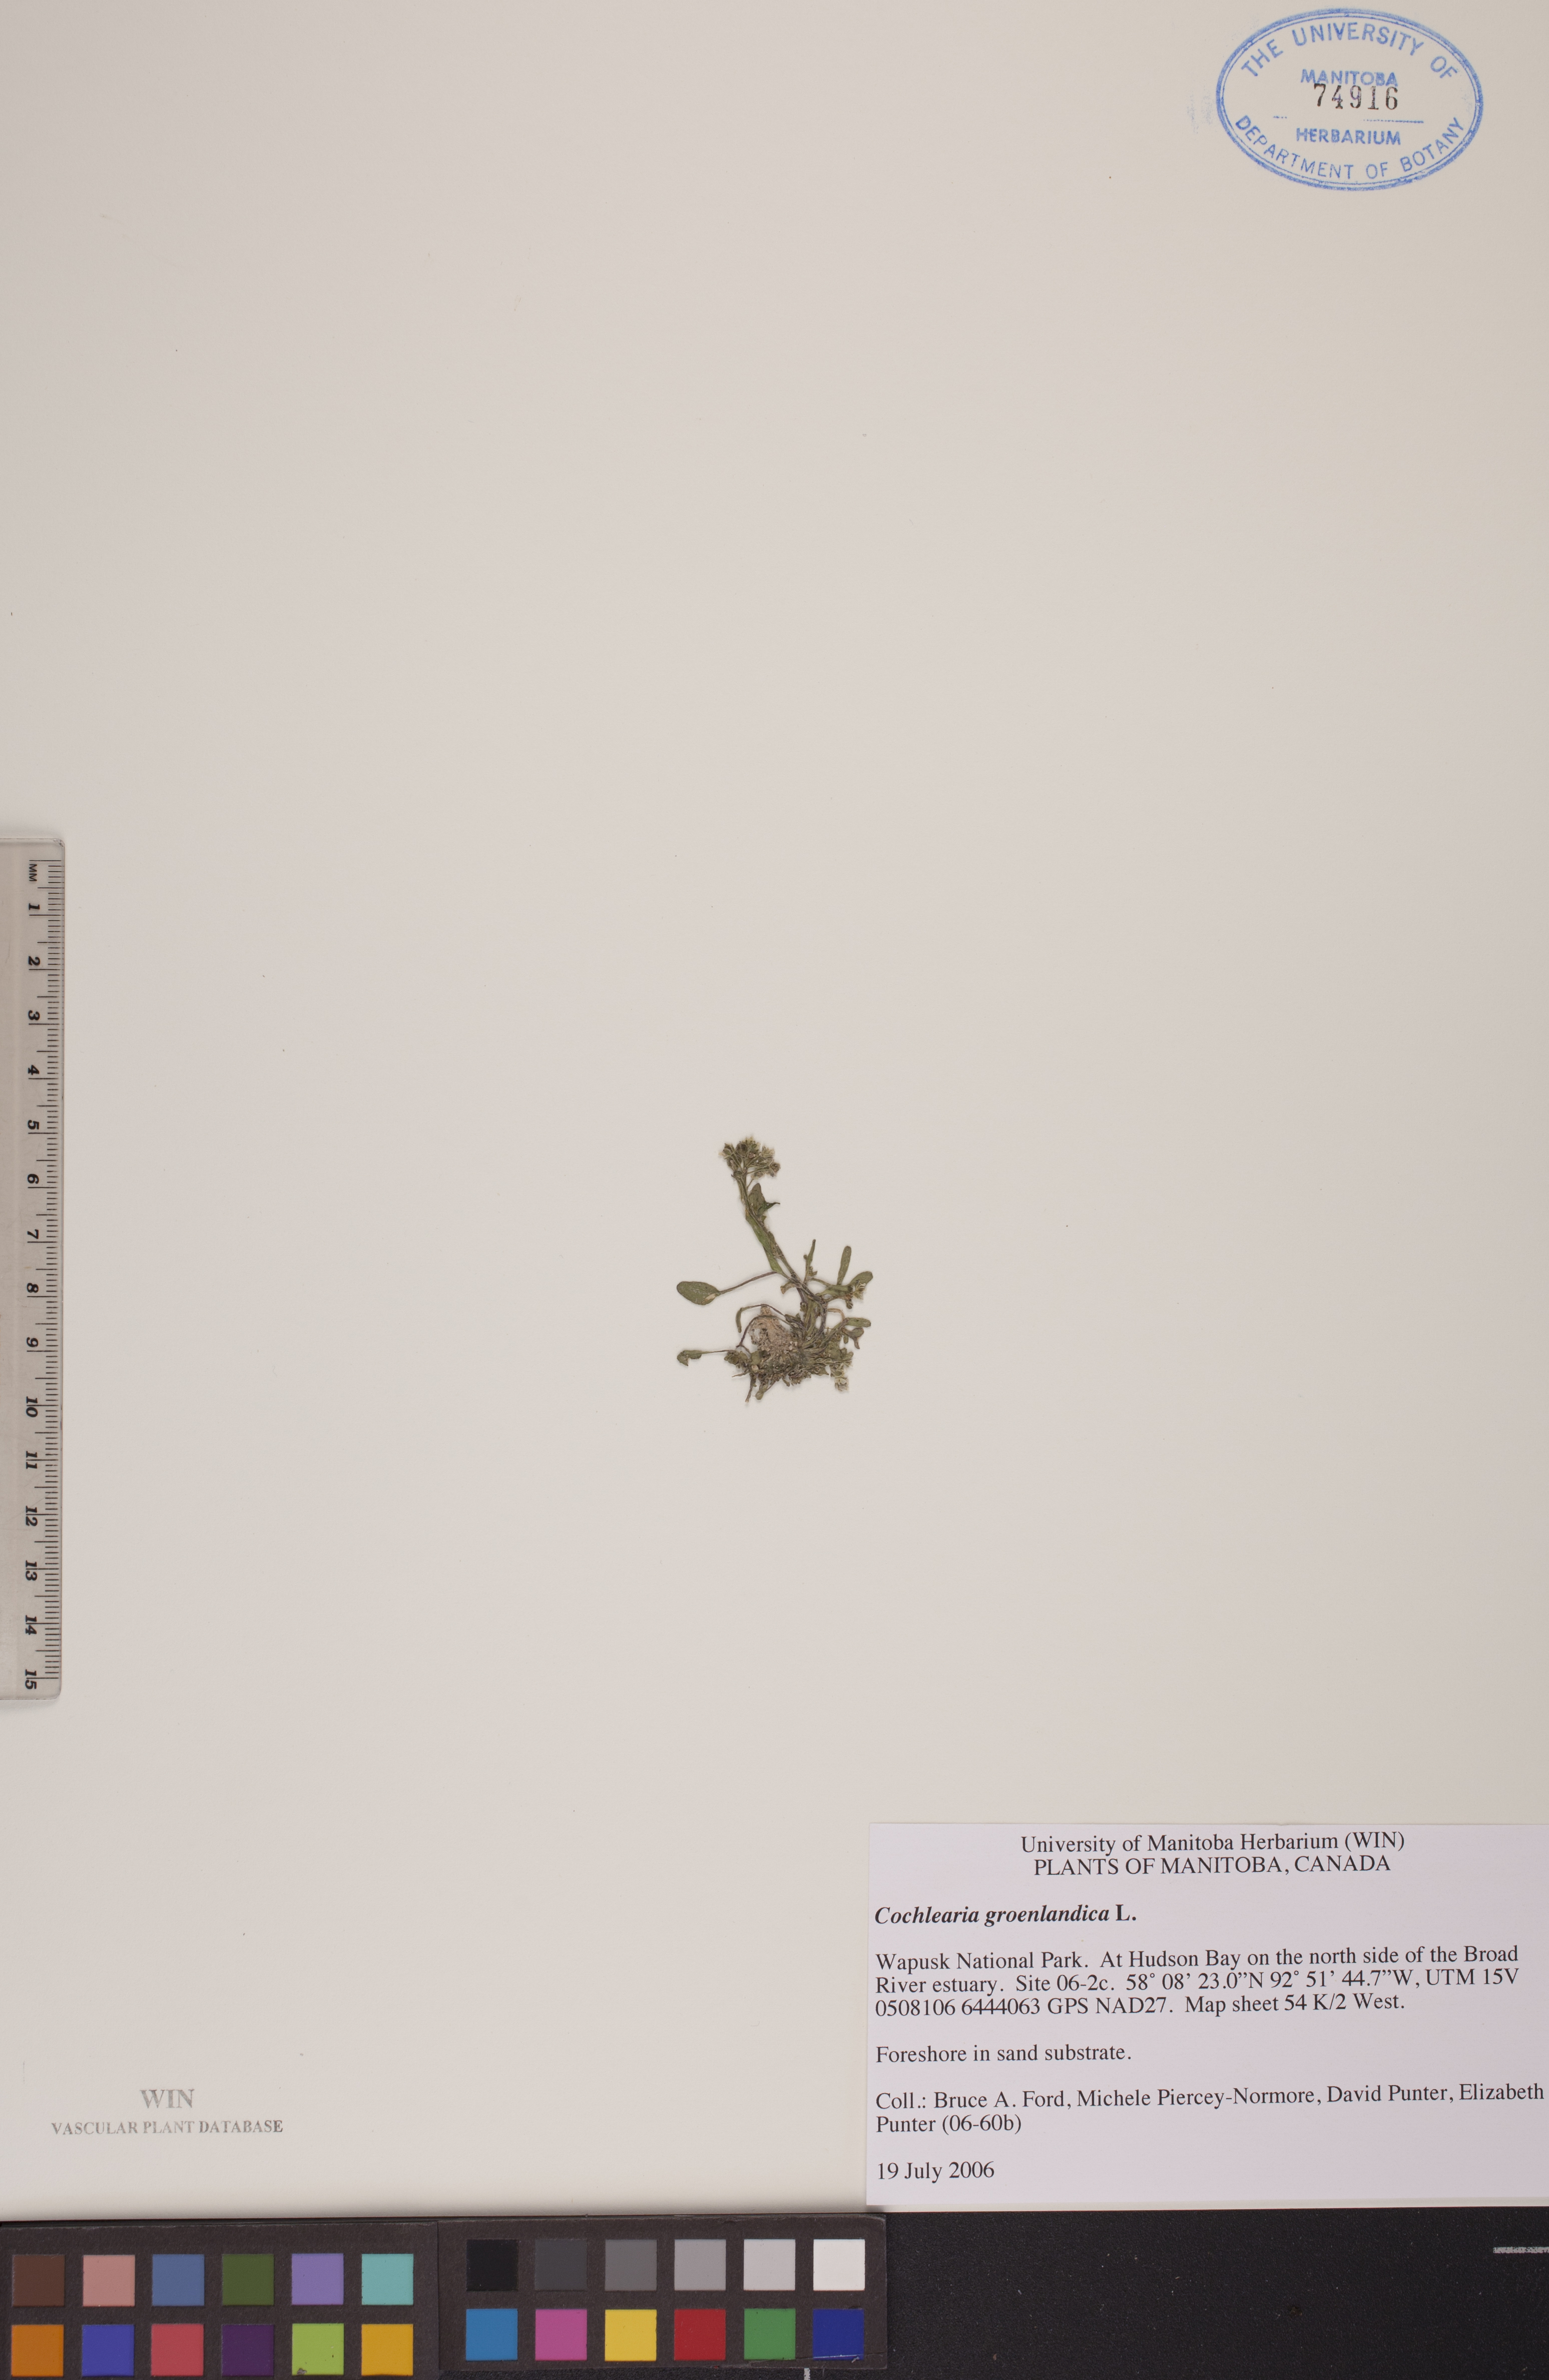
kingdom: Plantae
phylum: Tracheophyta
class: Magnoliopsida
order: Brassicales
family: Brassicaceae
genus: Cochlearia
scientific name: Cochlearia groenlandica
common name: Danish scurvygrass
